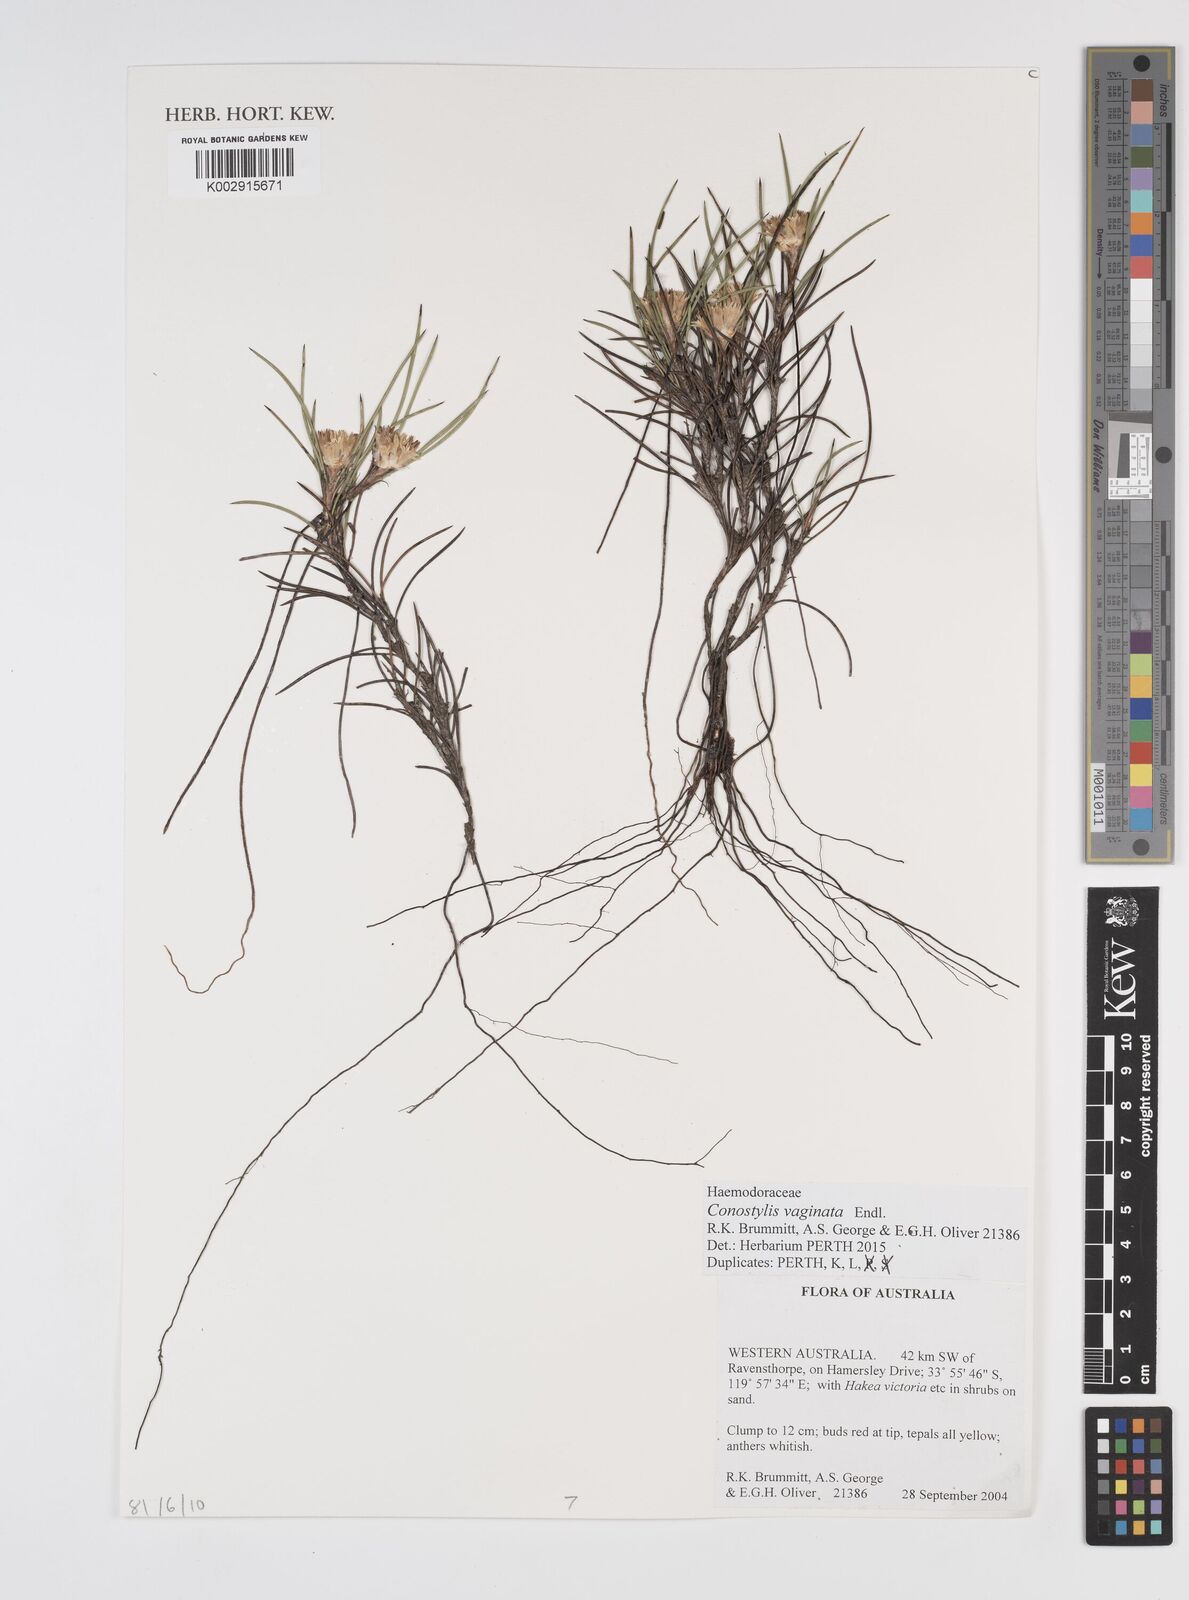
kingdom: Plantae
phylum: Tracheophyta
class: Liliopsida
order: Commelinales
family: Haemodoraceae
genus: Conostylis
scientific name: Conostylis vaginata
